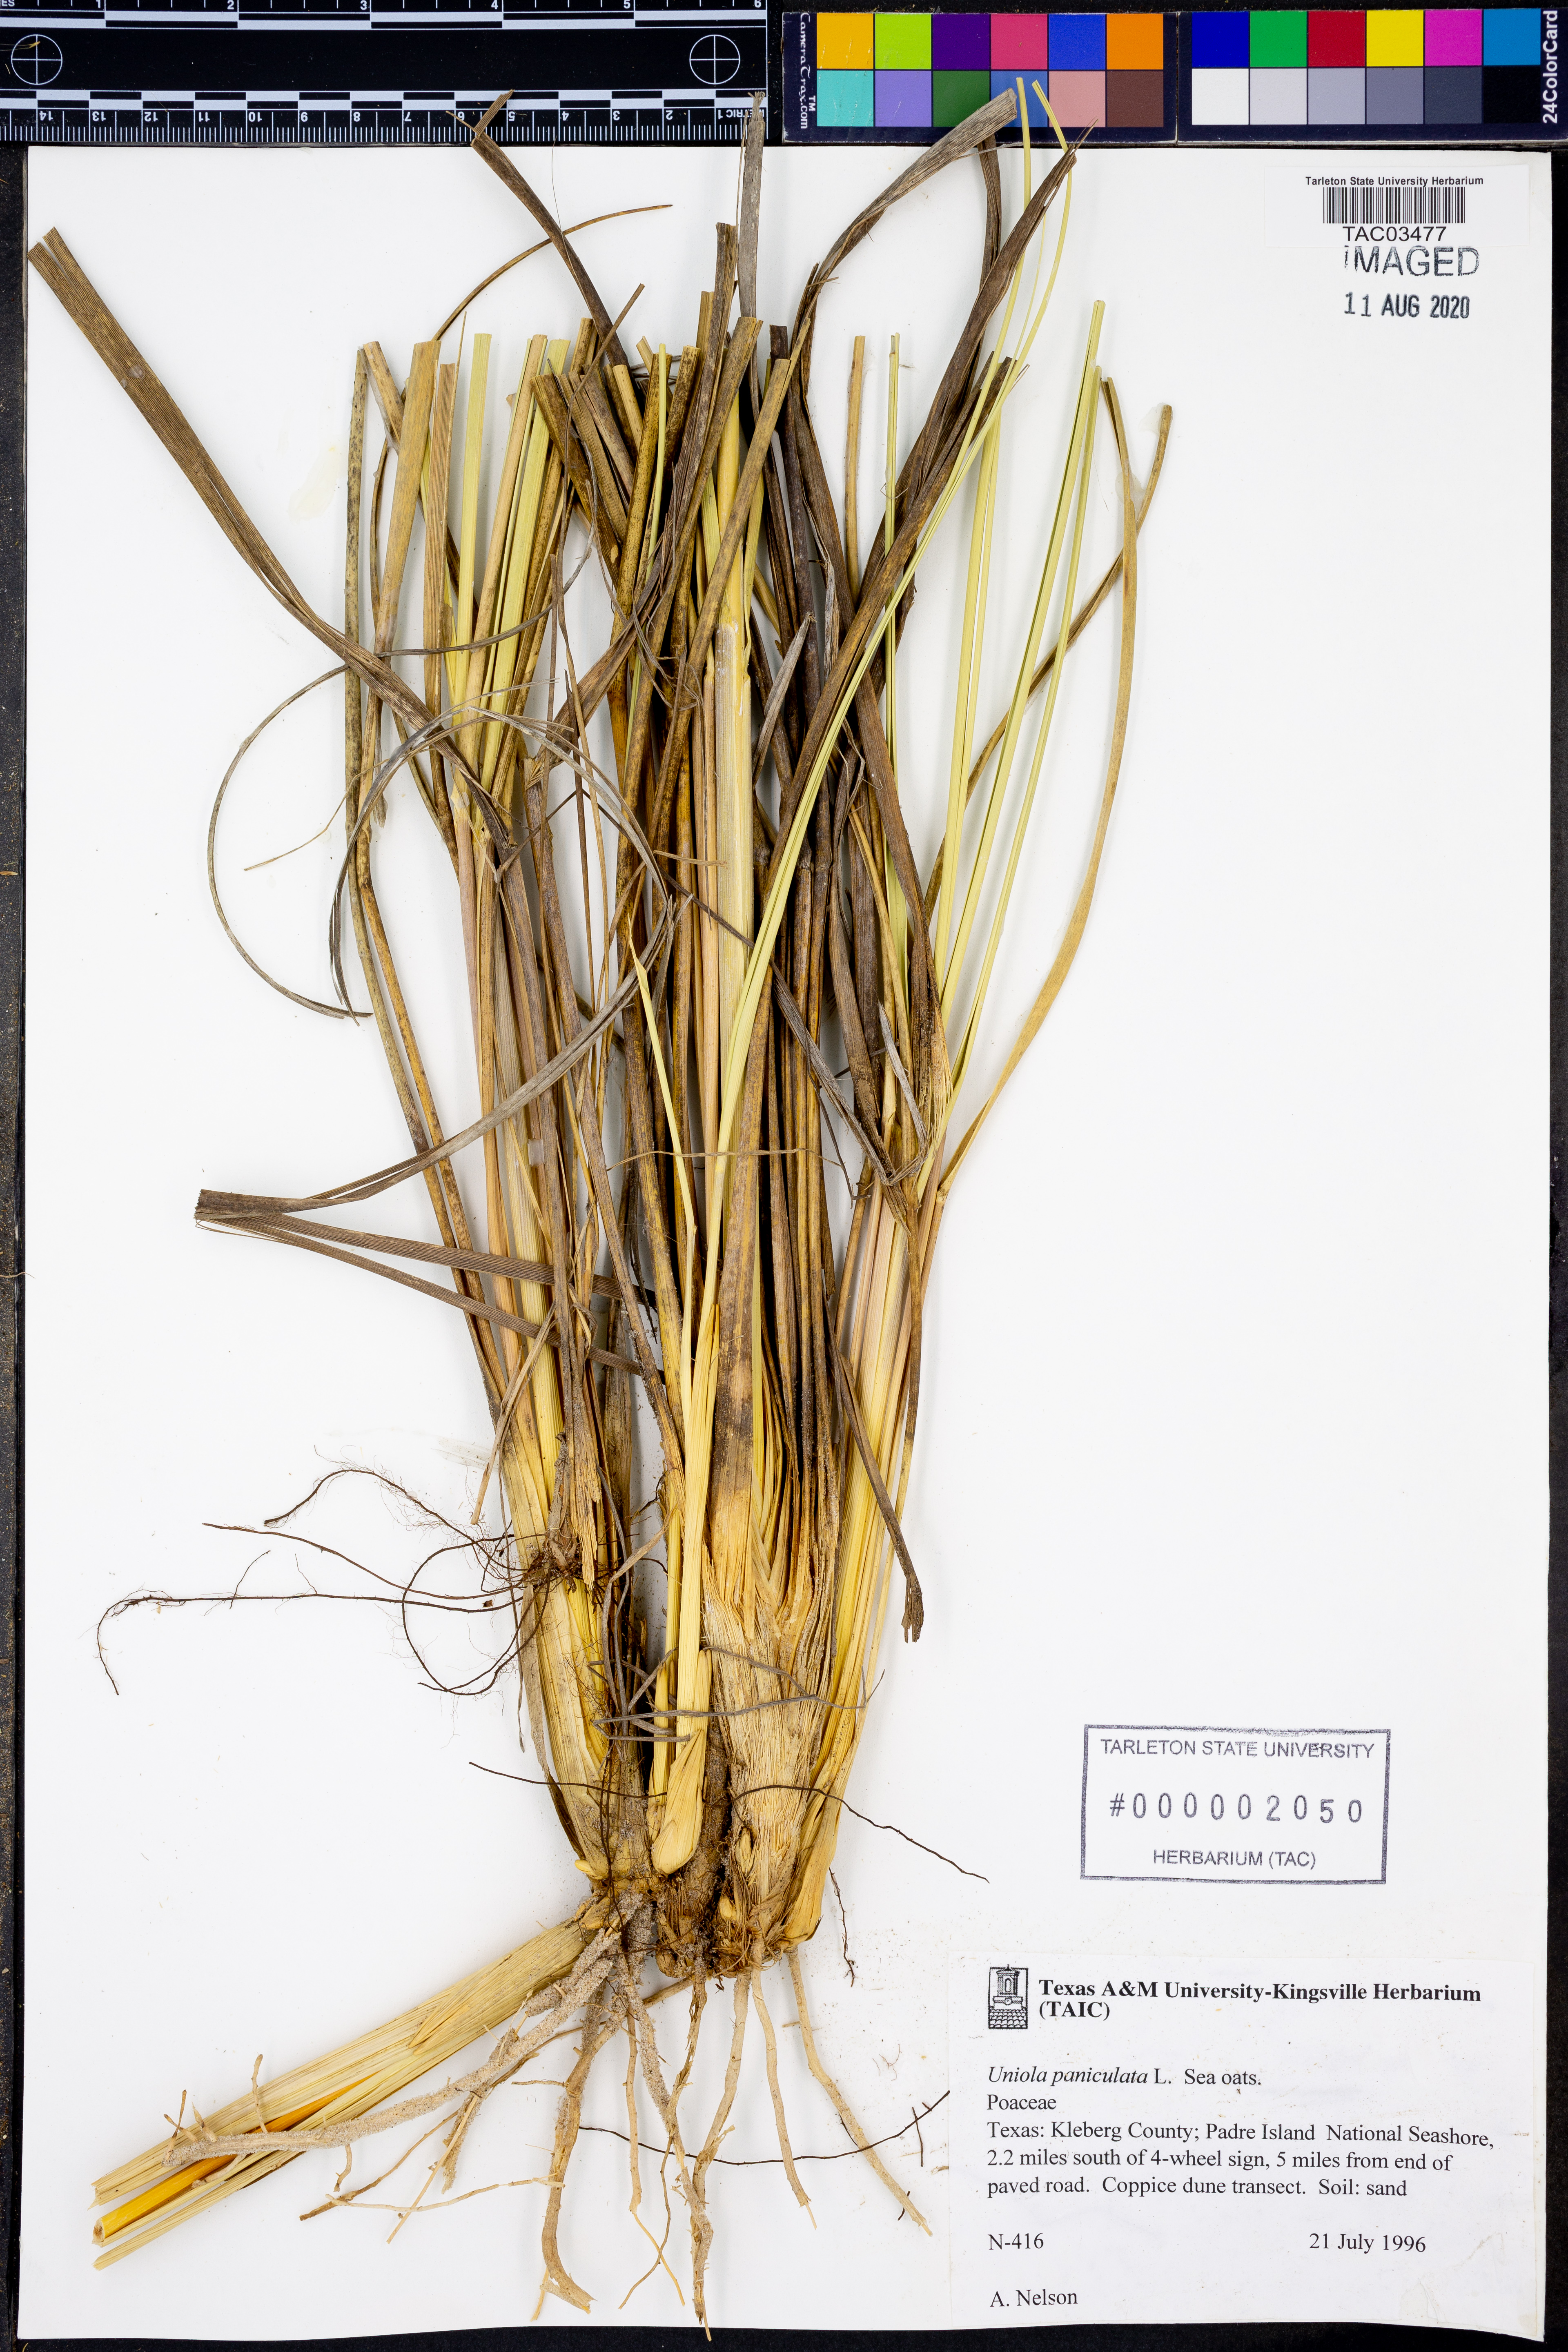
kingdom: Plantae
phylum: Tracheophyta
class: Liliopsida
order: Poales
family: Poaceae
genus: Uniola
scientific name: Uniola paniculata
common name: Seaside-oats
